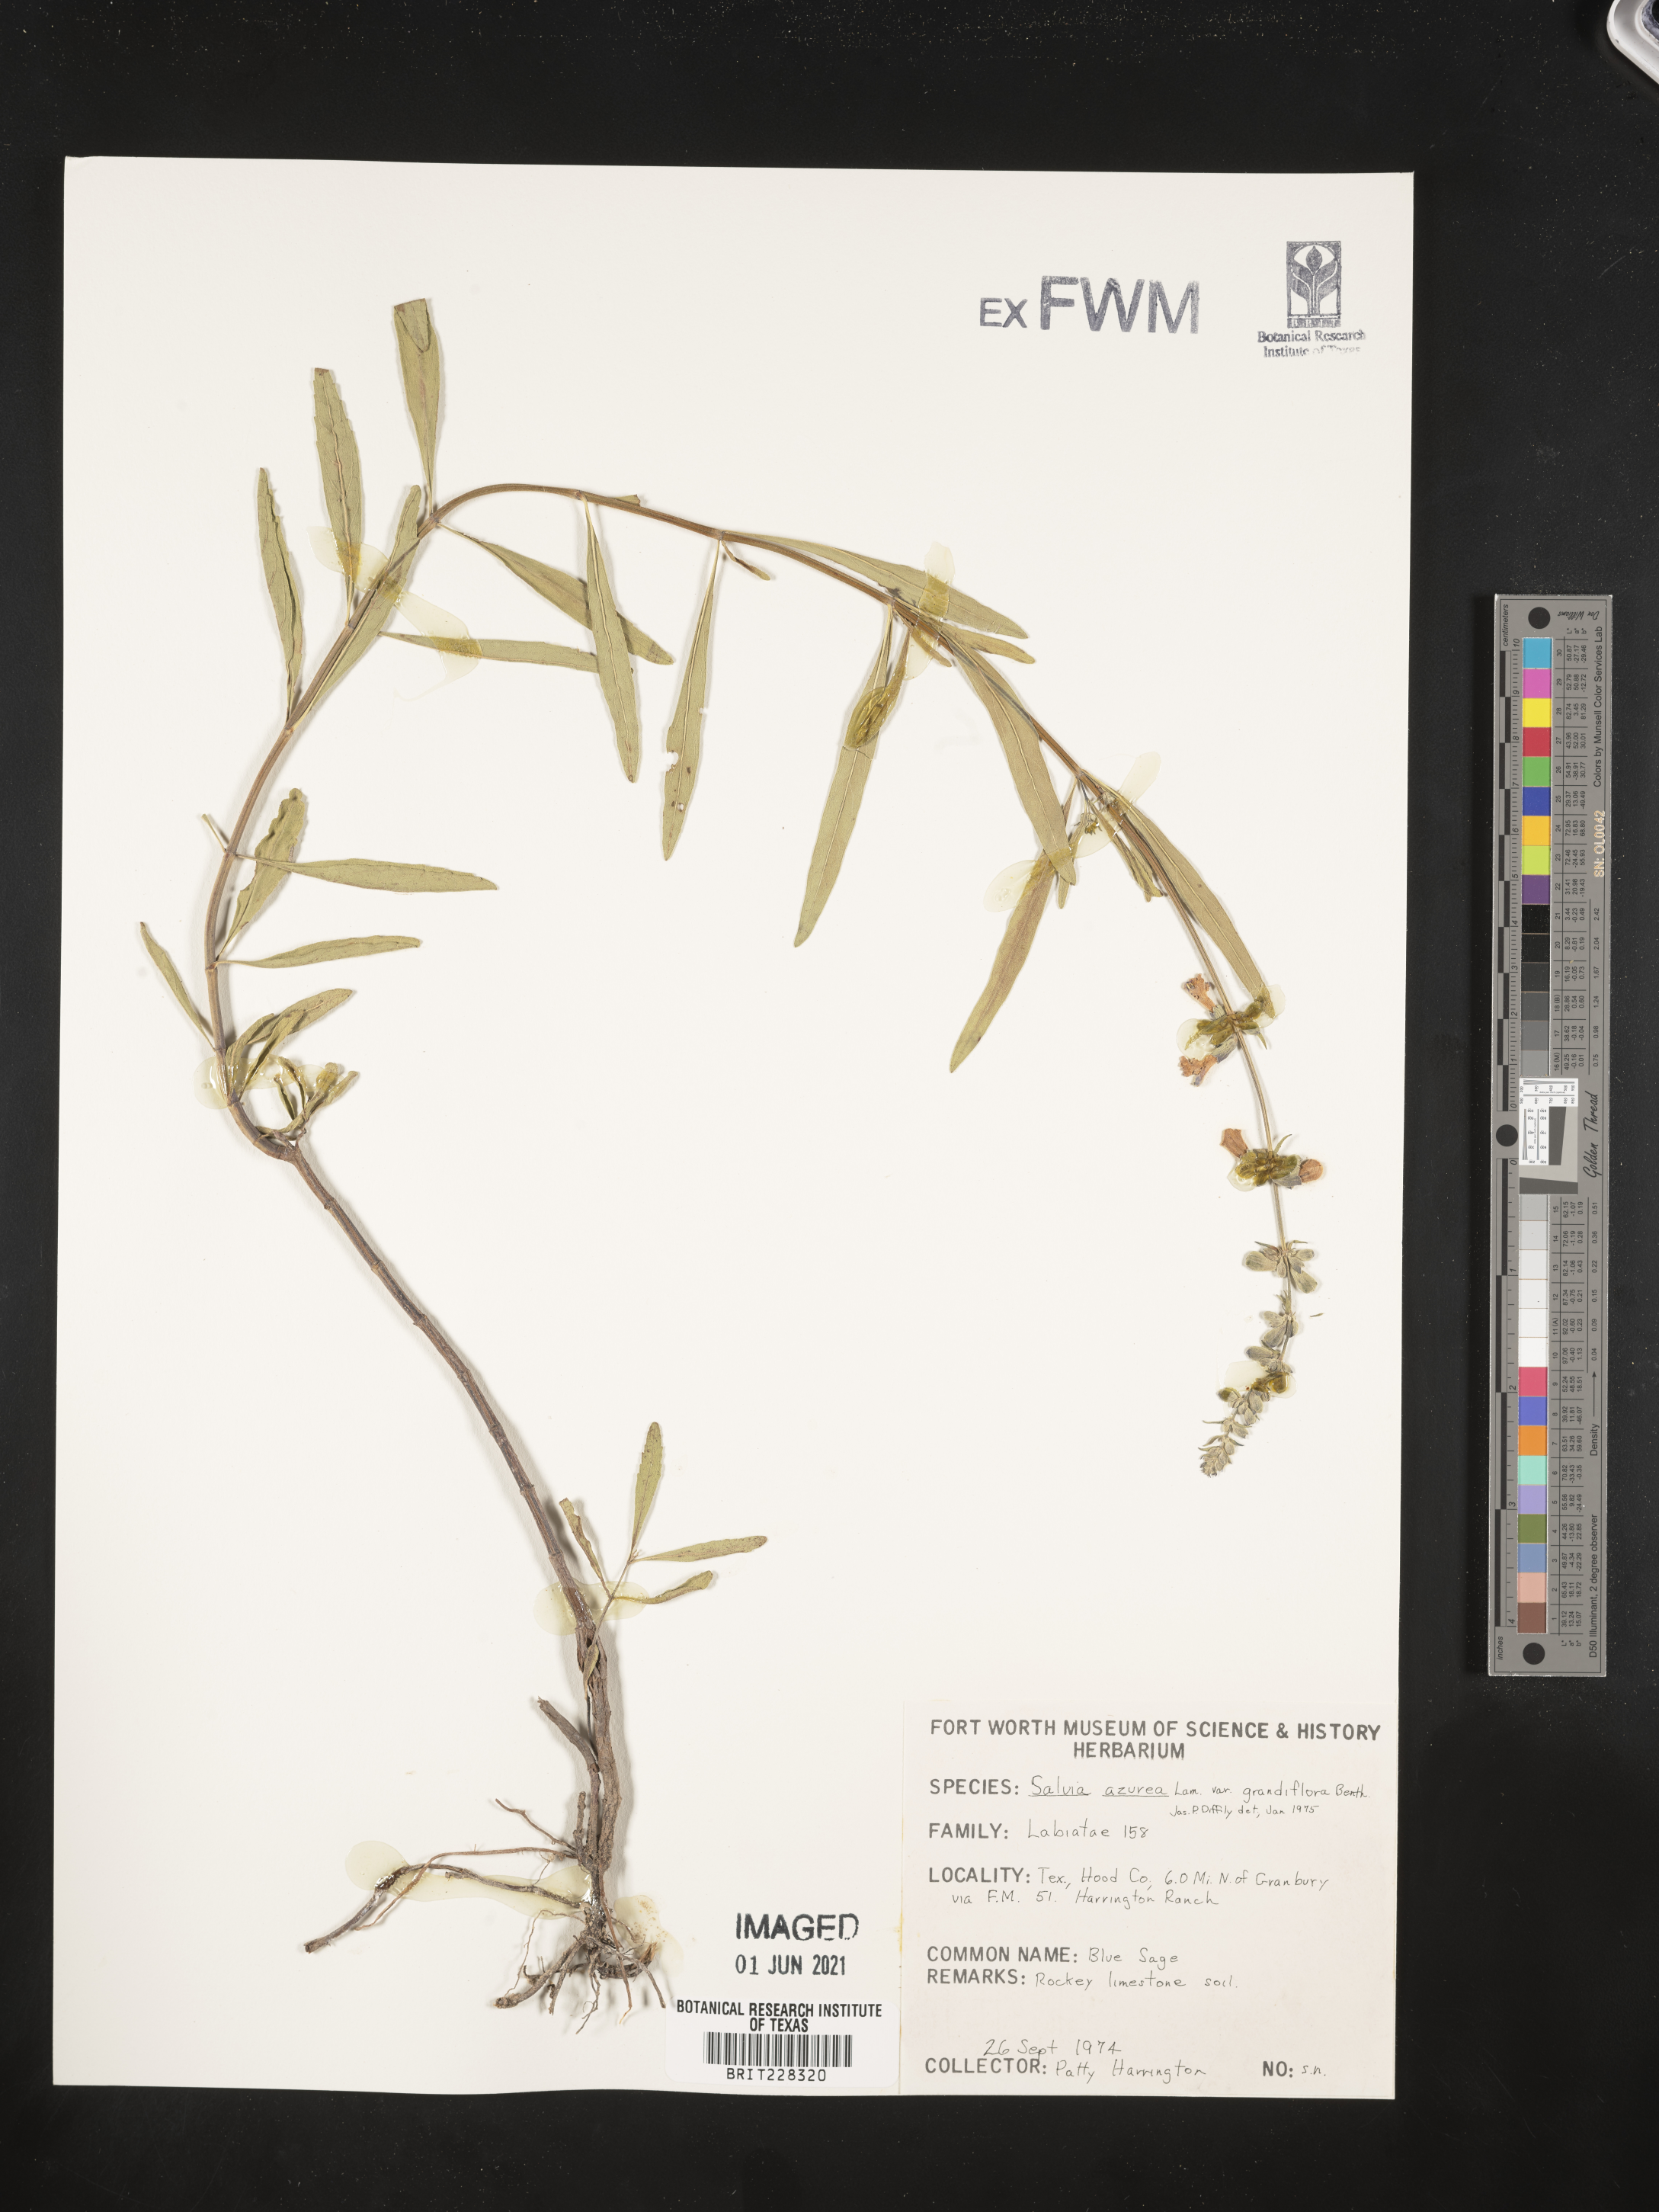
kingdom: Plantae
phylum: Tracheophyta
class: Magnoliopsida
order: Lamiales
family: Lamiaceae
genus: Salvia
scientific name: Salvia azurea
